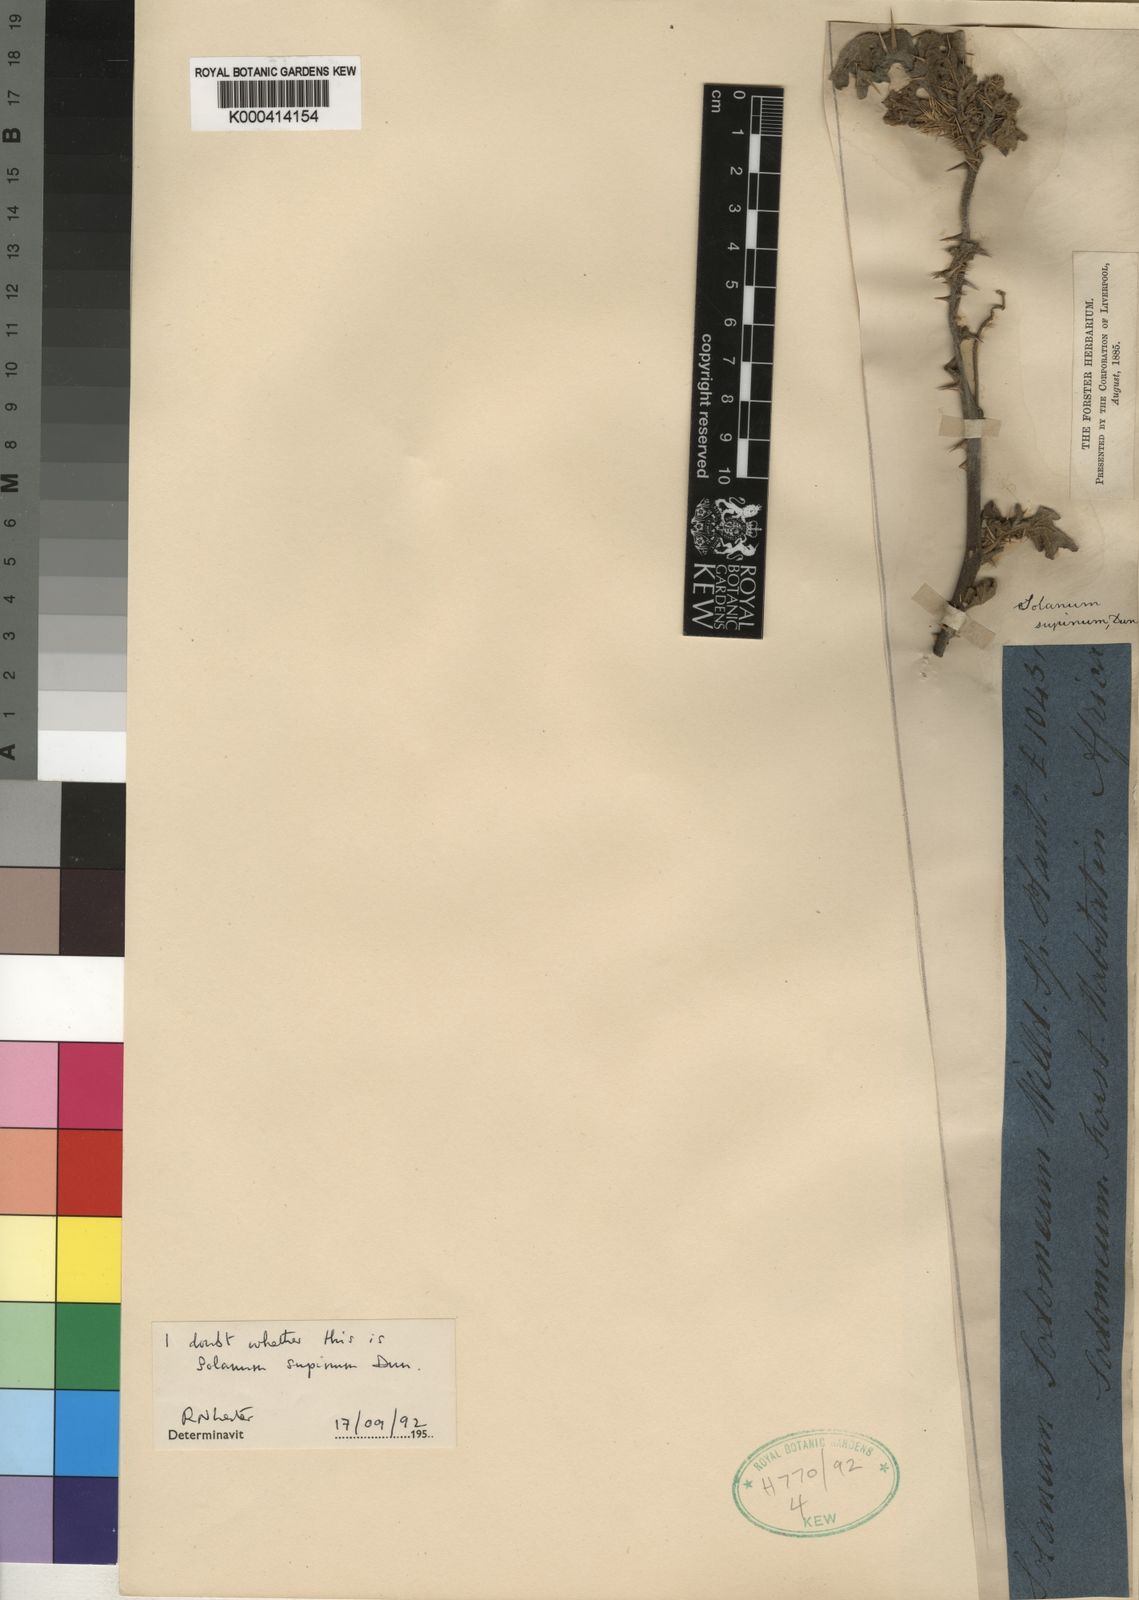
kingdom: Plantae
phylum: Tracheophyta
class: Magnoliopsida
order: Solanales
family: Solanaceae
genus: Solanum
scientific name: Solanum supinum
